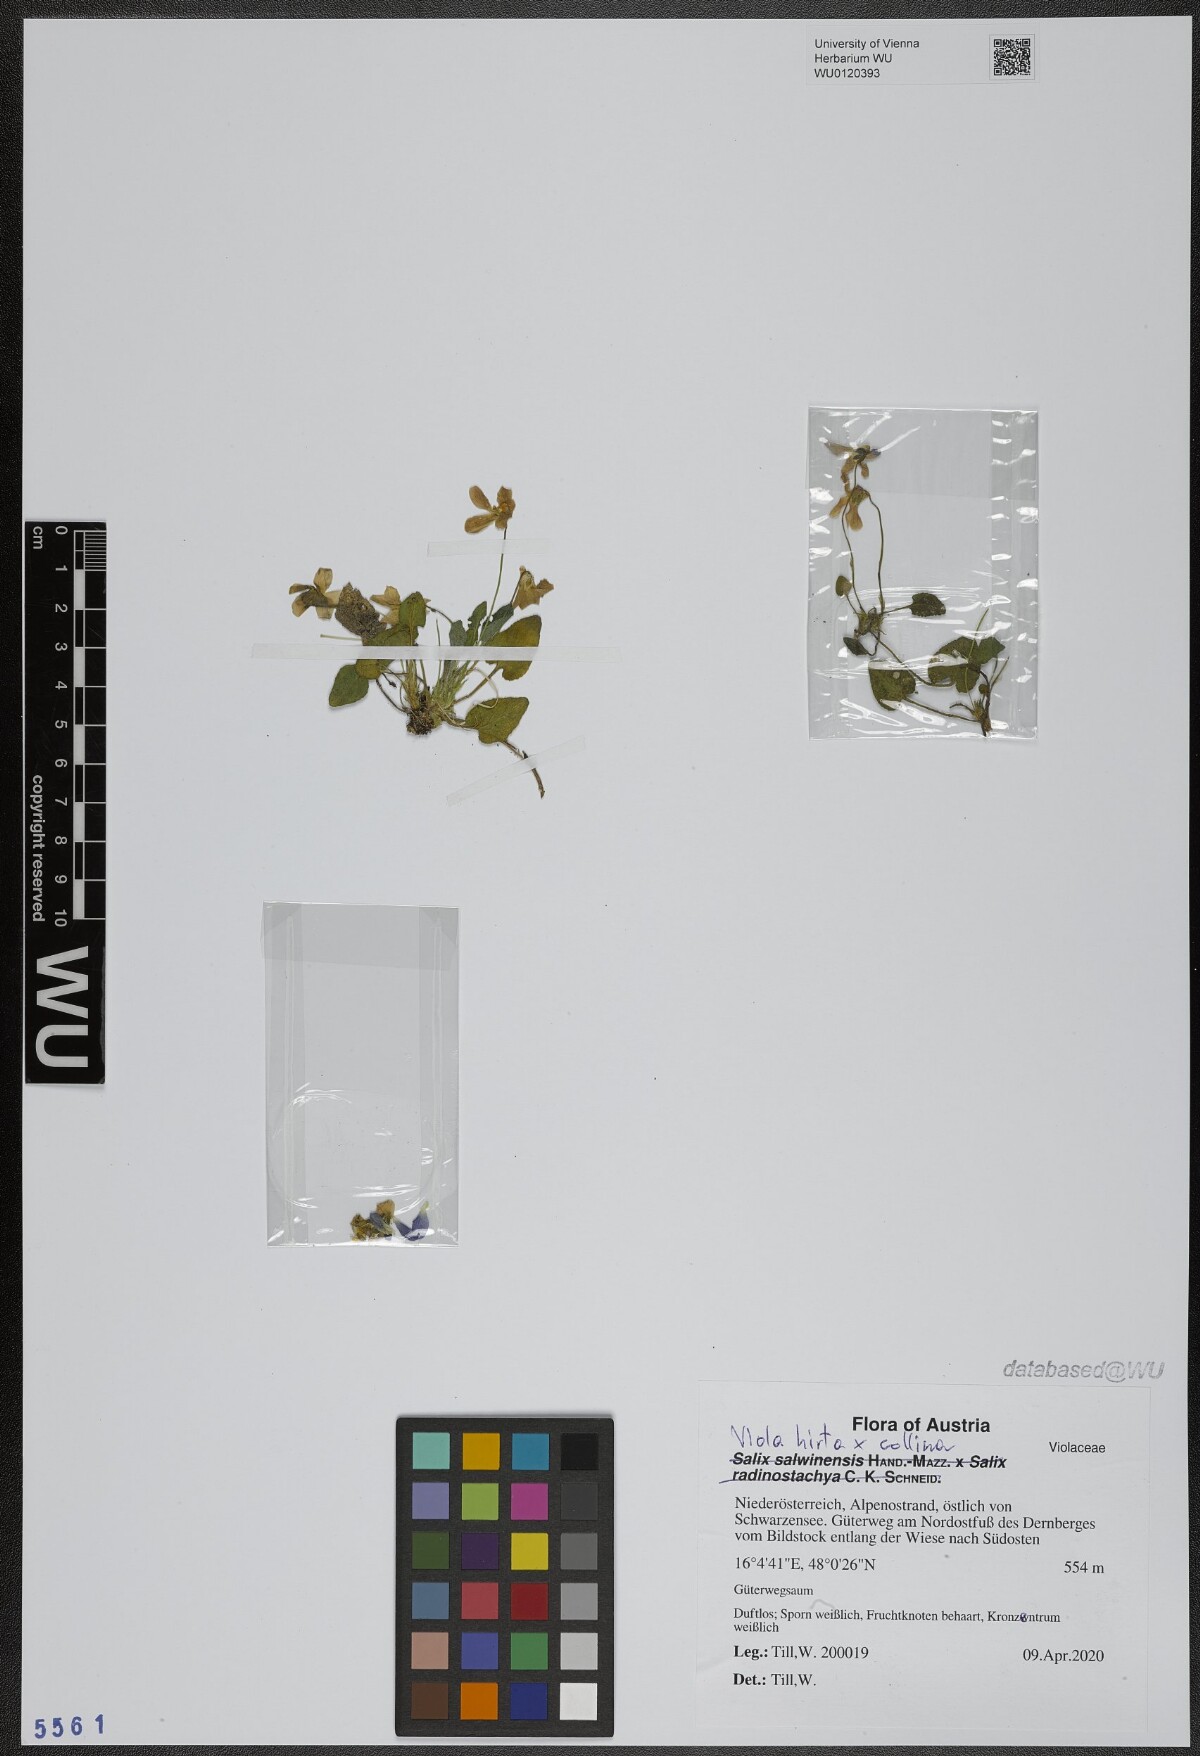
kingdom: Plantae
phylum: Tracheophyta
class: Magnoliopsida
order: Malpighiales
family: Violaceae
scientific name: Violaceae
